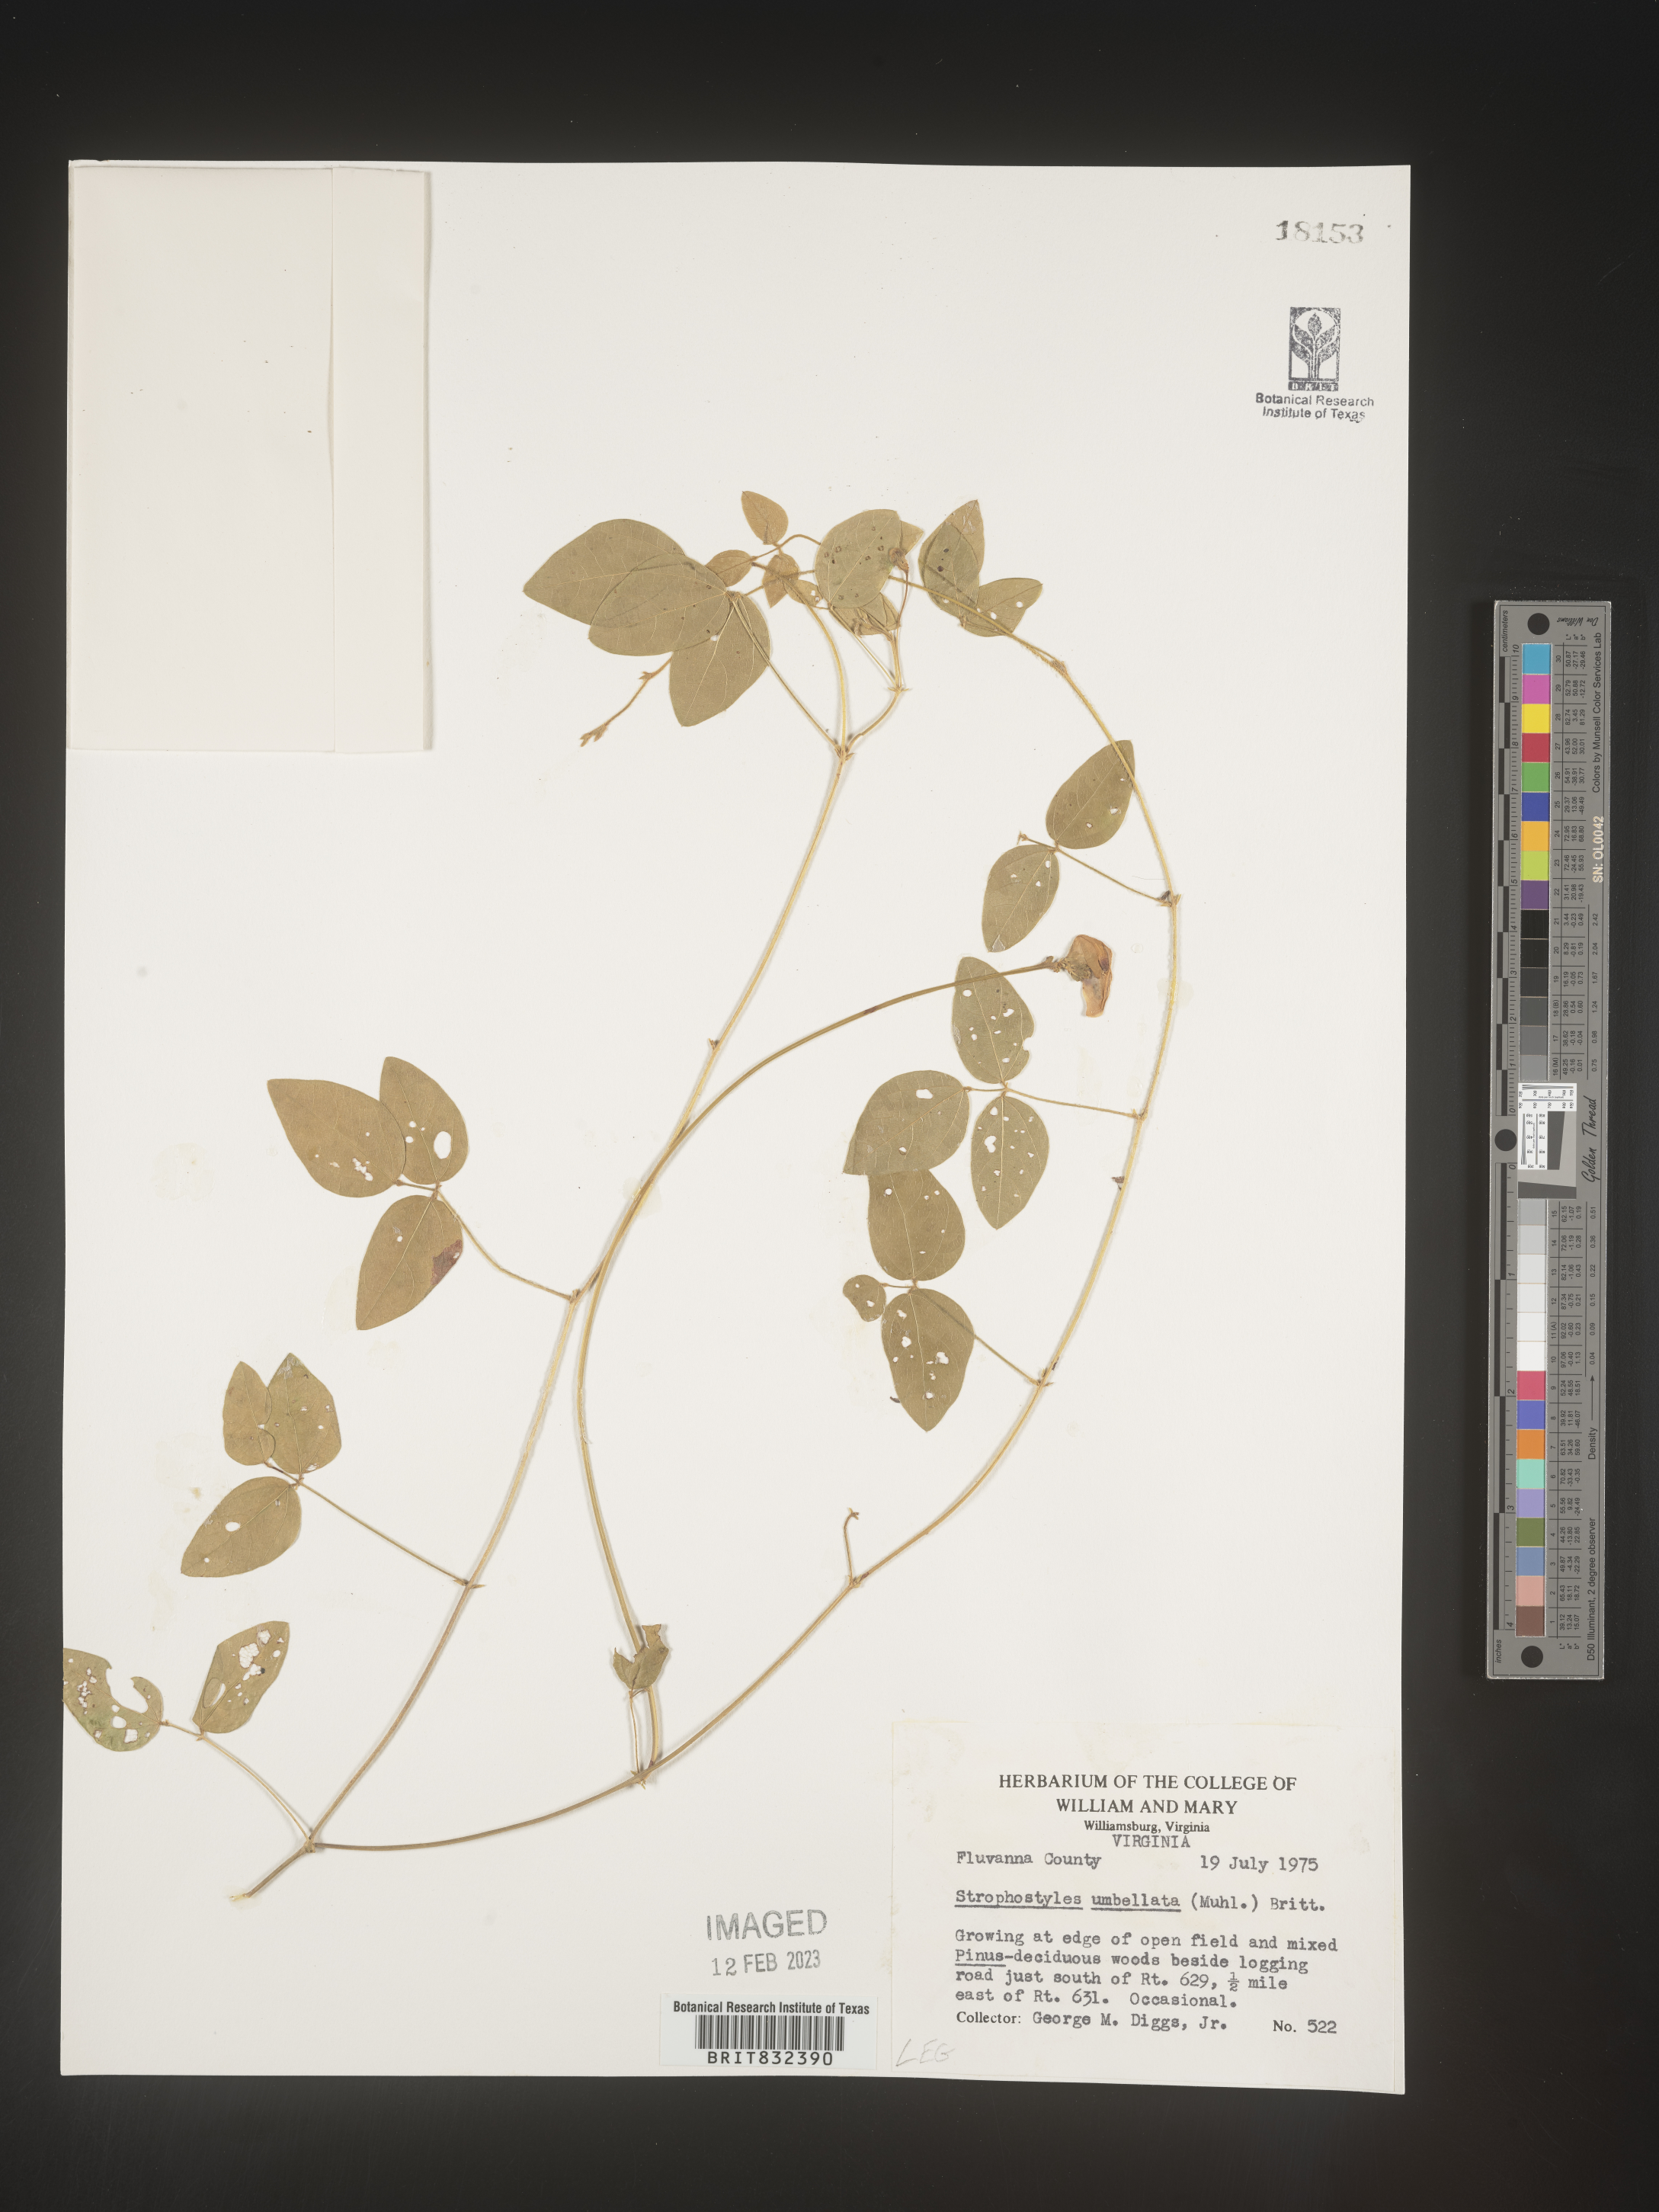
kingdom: Plantae
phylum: Tracheophyta
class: Magnoliopsida
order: Fabales
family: Fabaceae
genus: Strophostyles
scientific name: Strophostyles umbellata
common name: Perennial wild bean
